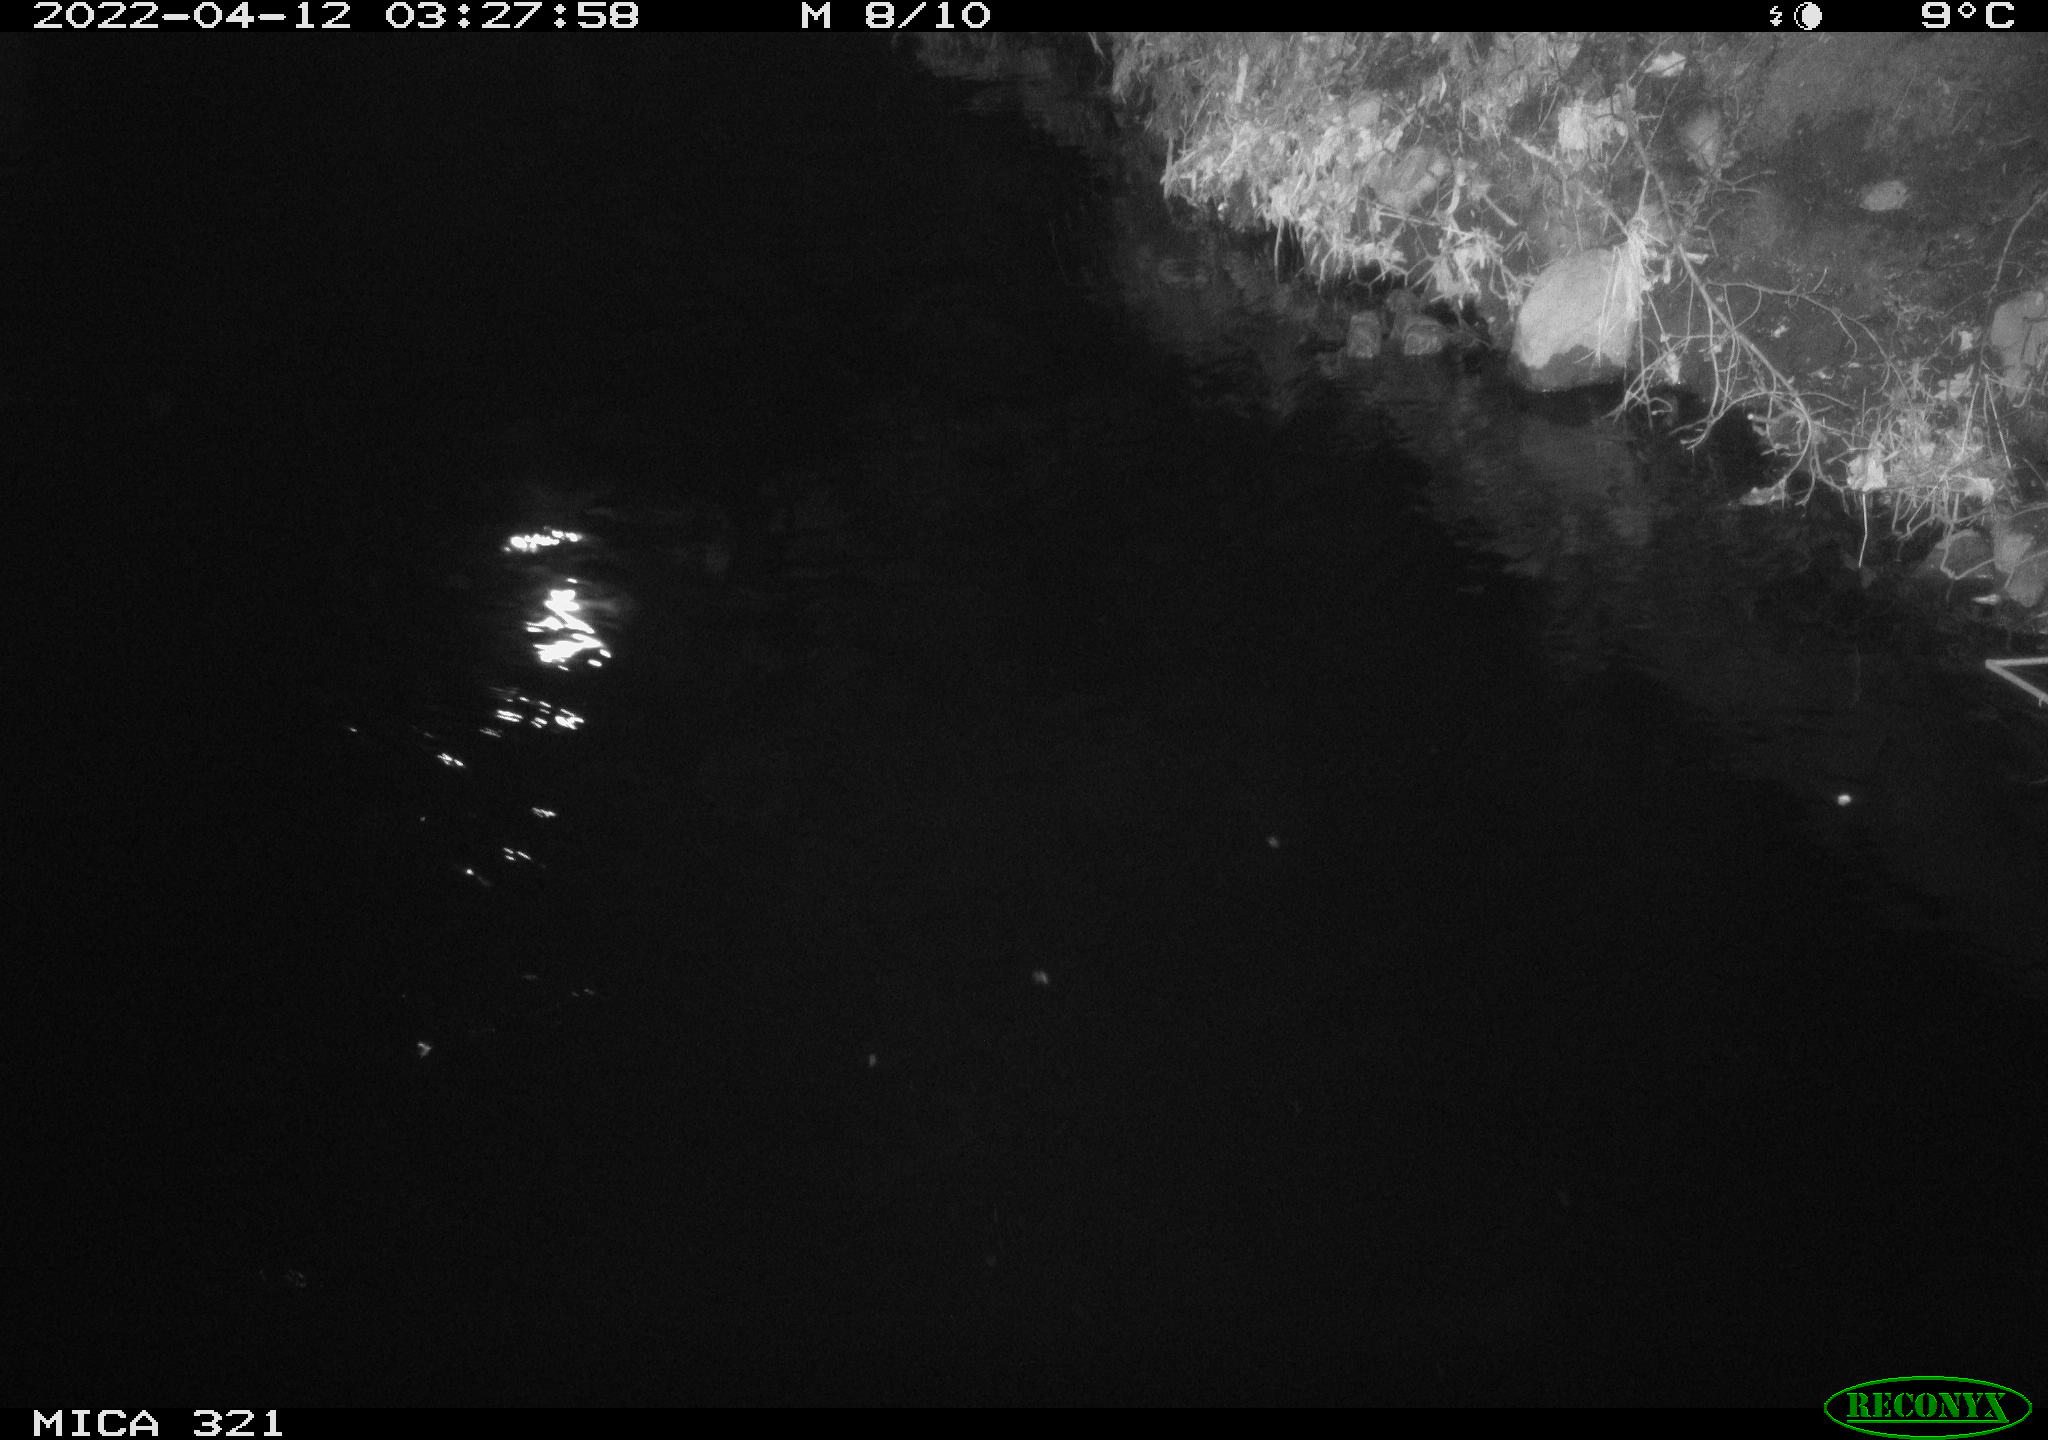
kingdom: Animalia
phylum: Chordata
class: Aves
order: Anseriformes
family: Anatidae
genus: Anas
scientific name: Anas platyrhynchos
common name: Mallard
